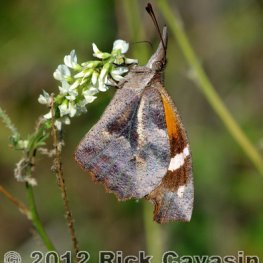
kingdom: Animalia
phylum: Arthropoda
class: Insecta
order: Lepidoptera
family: Nymphalidae
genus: Libytheana
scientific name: Libytheana carinenta
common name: American Snout
